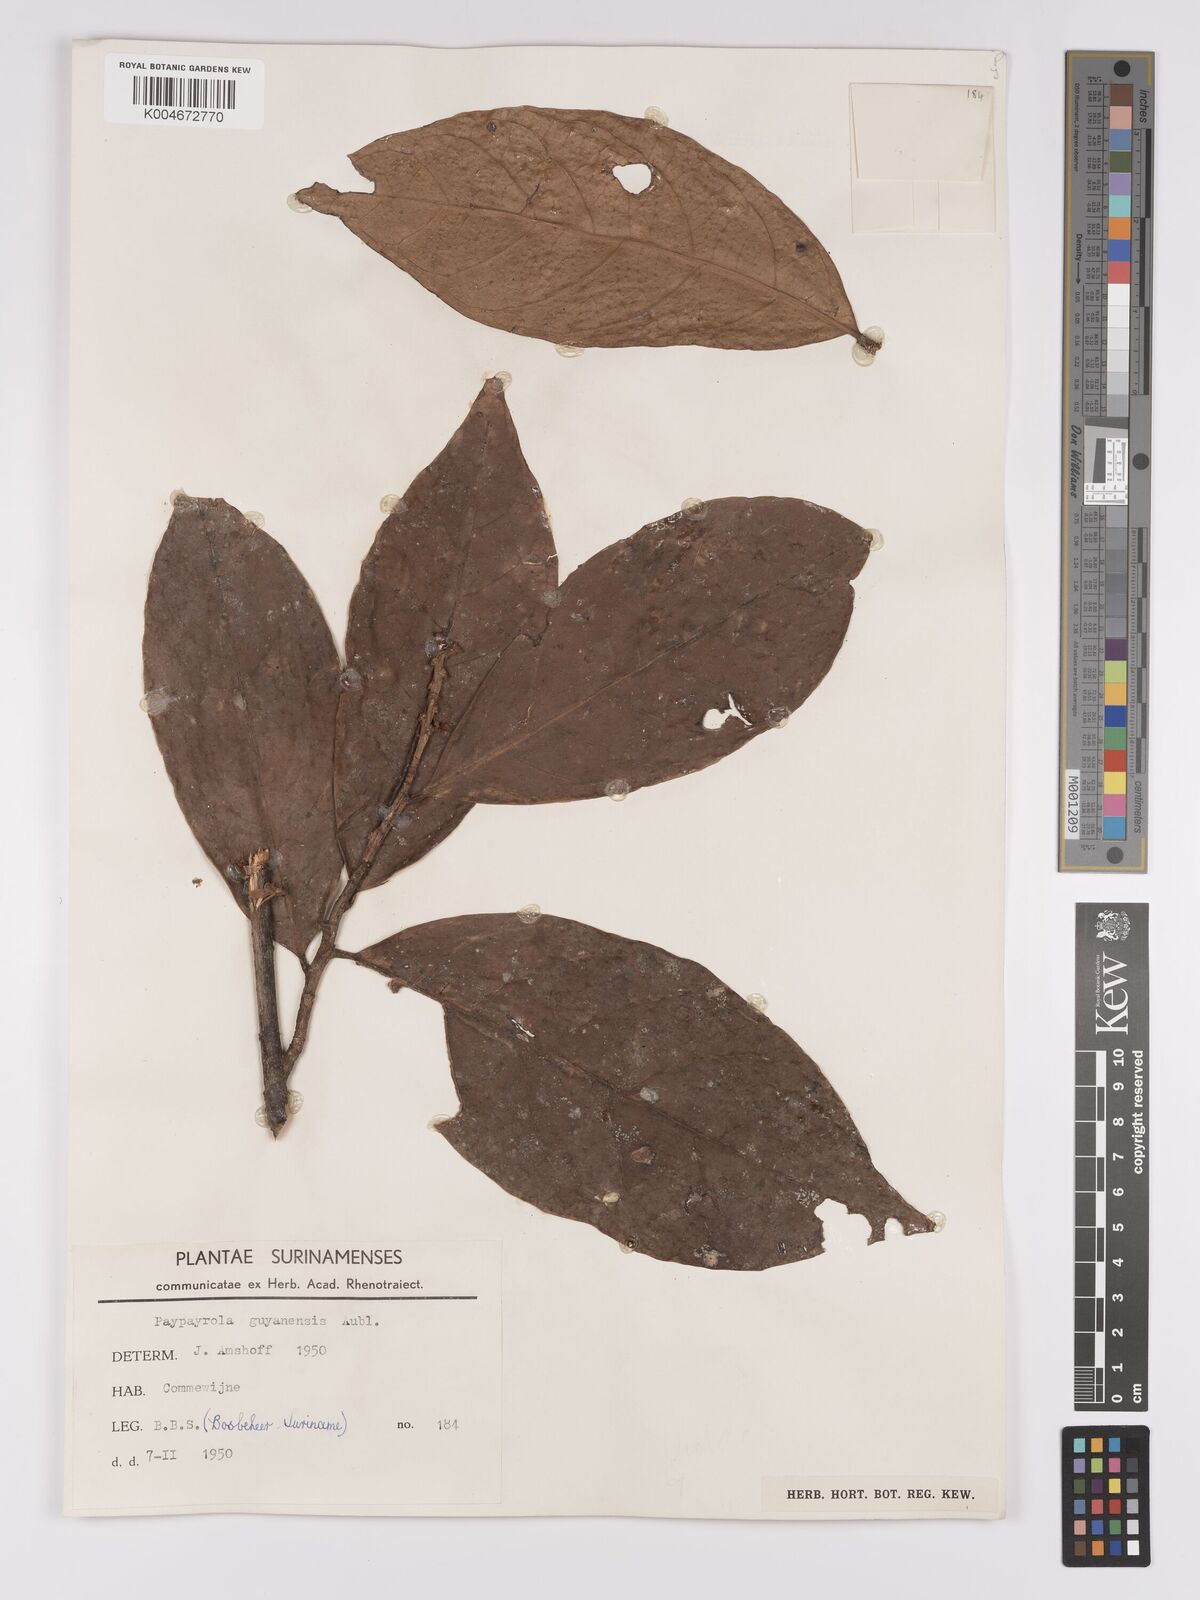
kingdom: Plantae
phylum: Tracheophyta
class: Magnoliopsida
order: Malpighiales
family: Violaceae
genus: Paypayrola
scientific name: Paypayrola guianensis
